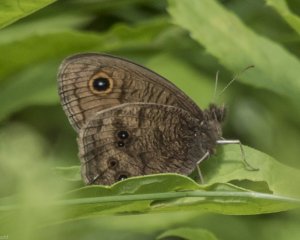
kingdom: Animalia
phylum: Arthropoda
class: Insecta
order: Lepidoptera
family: Nymphalidae
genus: Cercyonis
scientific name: Cercyonis pegala
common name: Common Wood-Nymph
